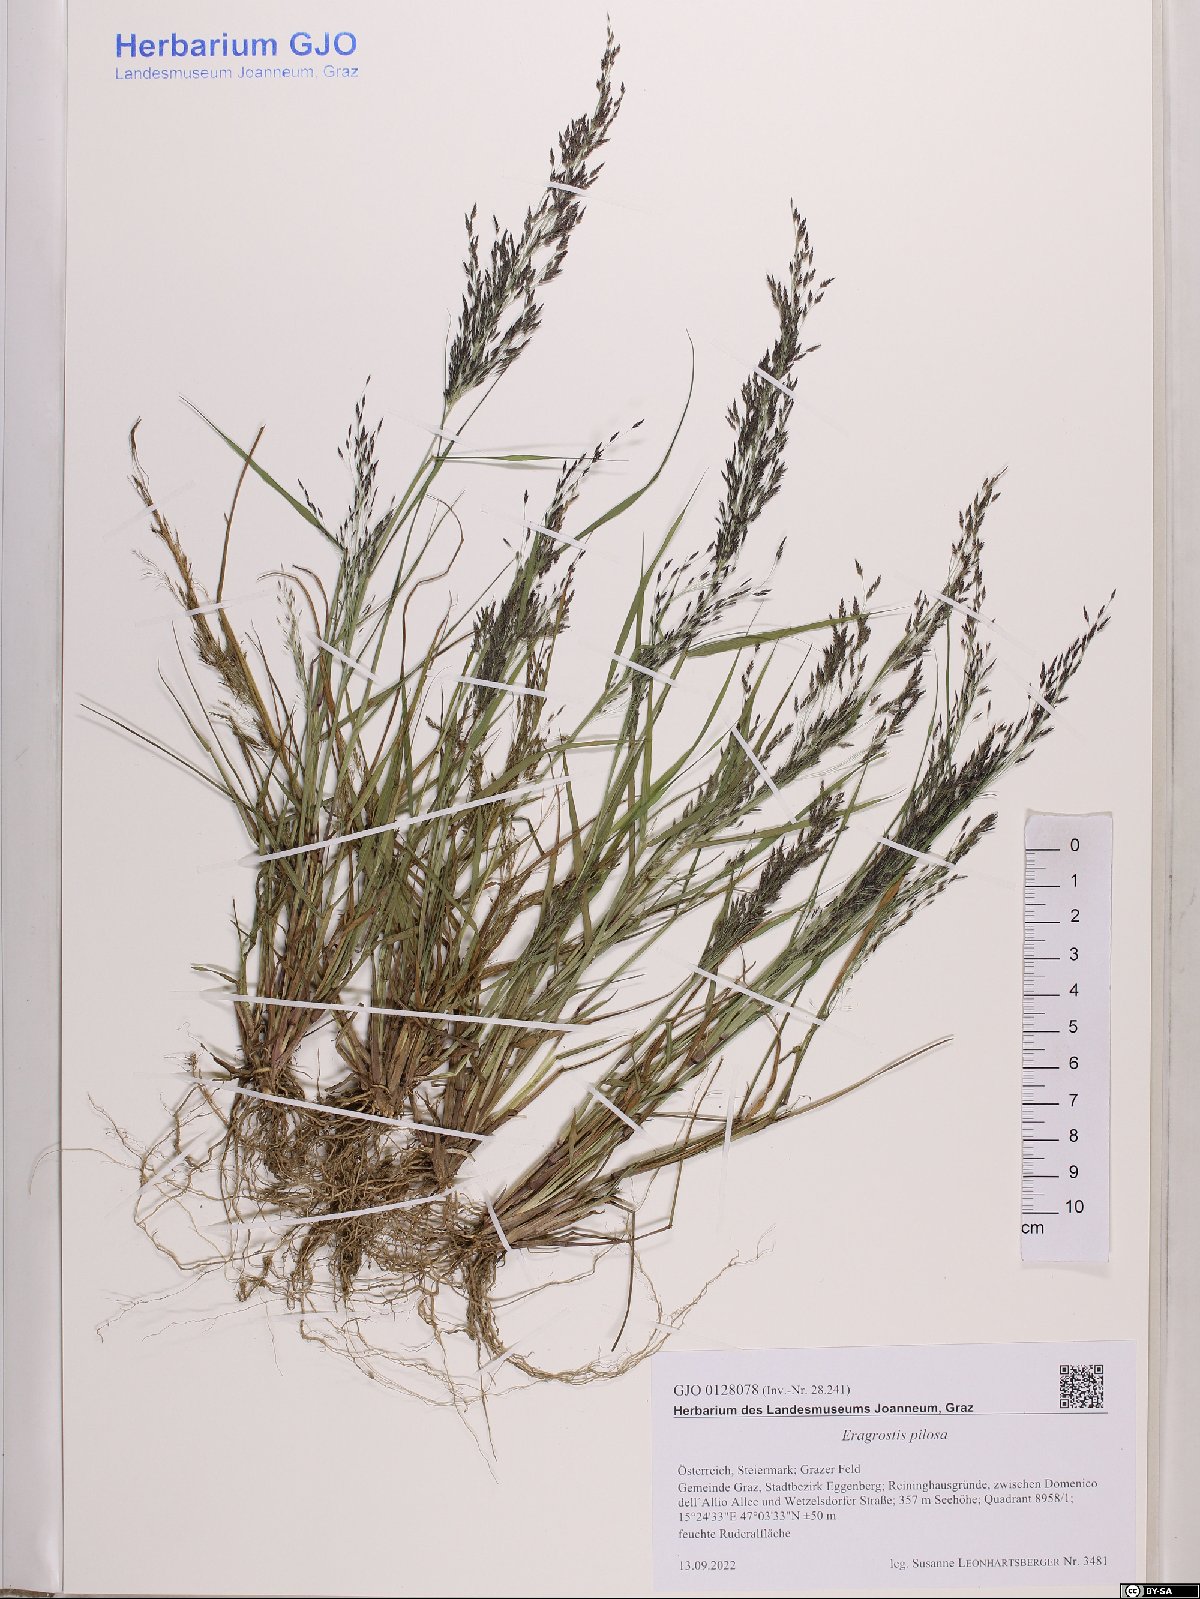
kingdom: Plantae
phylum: Tracheophyta
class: Liliopsida
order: Poales
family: Poaceae
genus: Eragrostis
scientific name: Eragrostis pilosa
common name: Indian lovegrass
